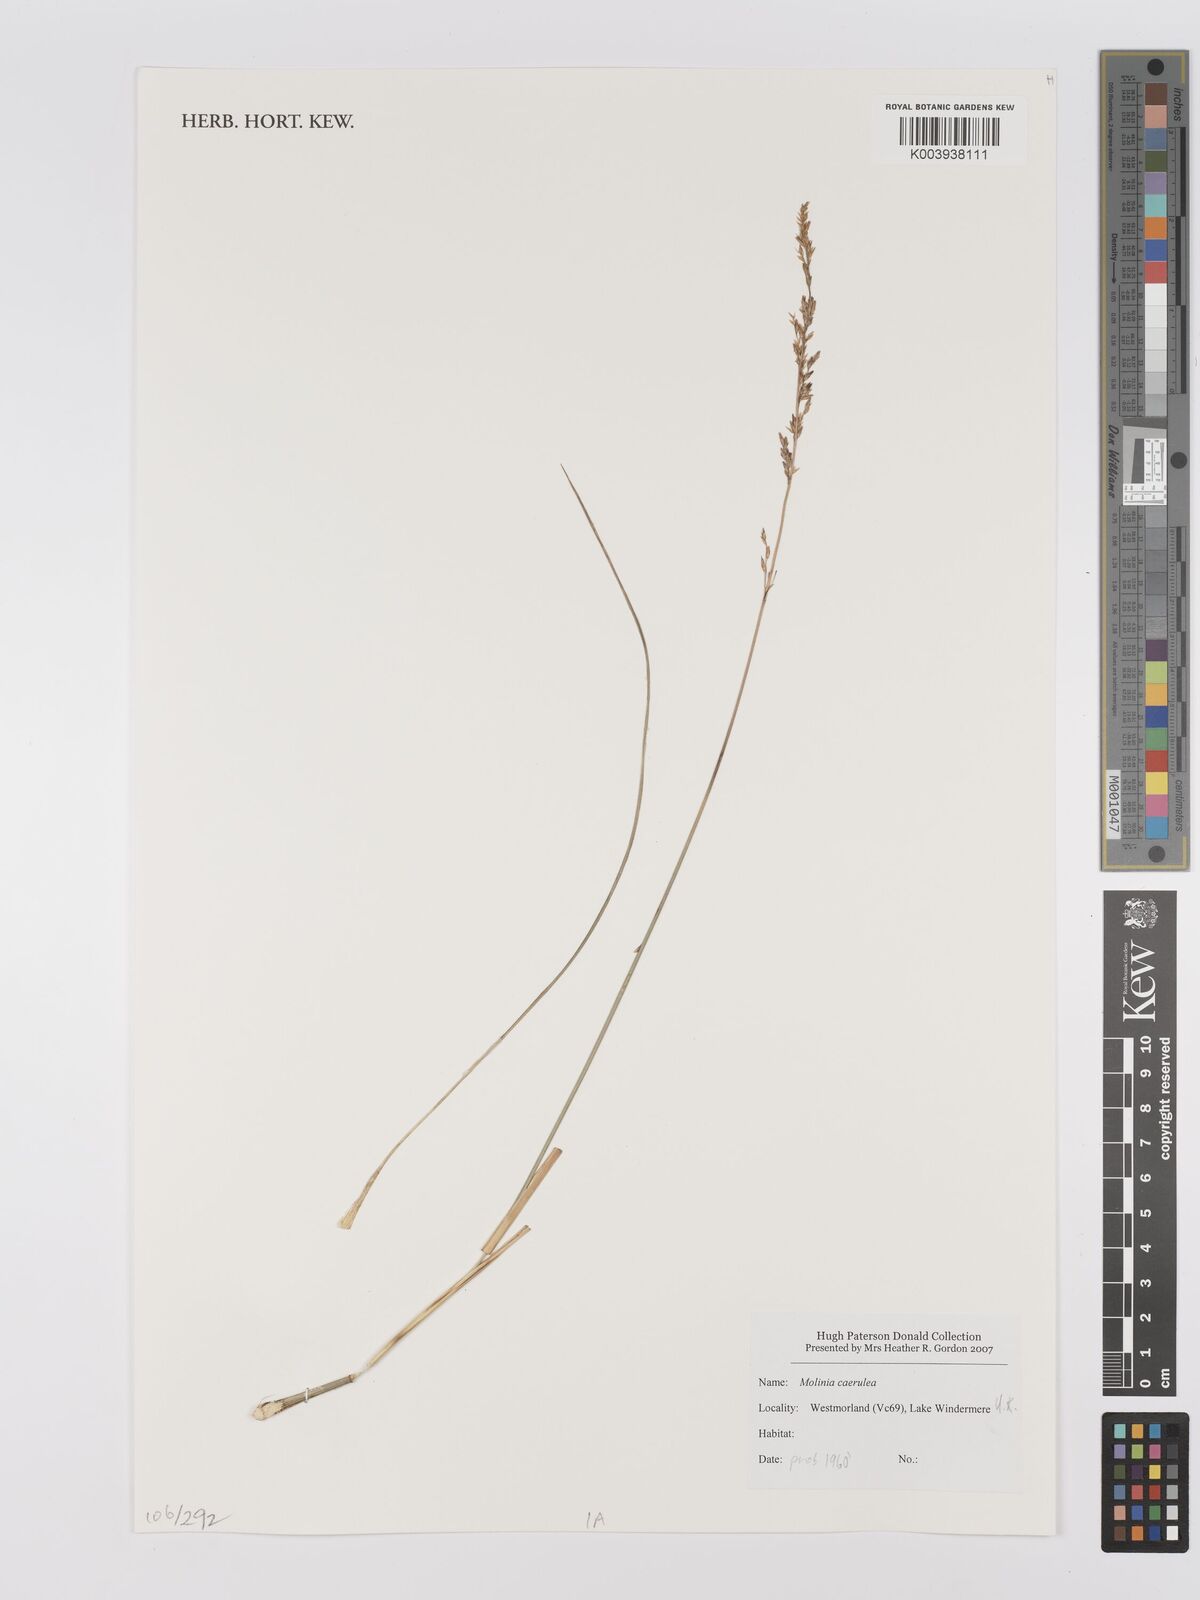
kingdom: Plantae
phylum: Tracheophyta
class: Liliopsida
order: Poales
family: Poaceae
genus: Hakonechloa
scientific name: Hakonechloa
